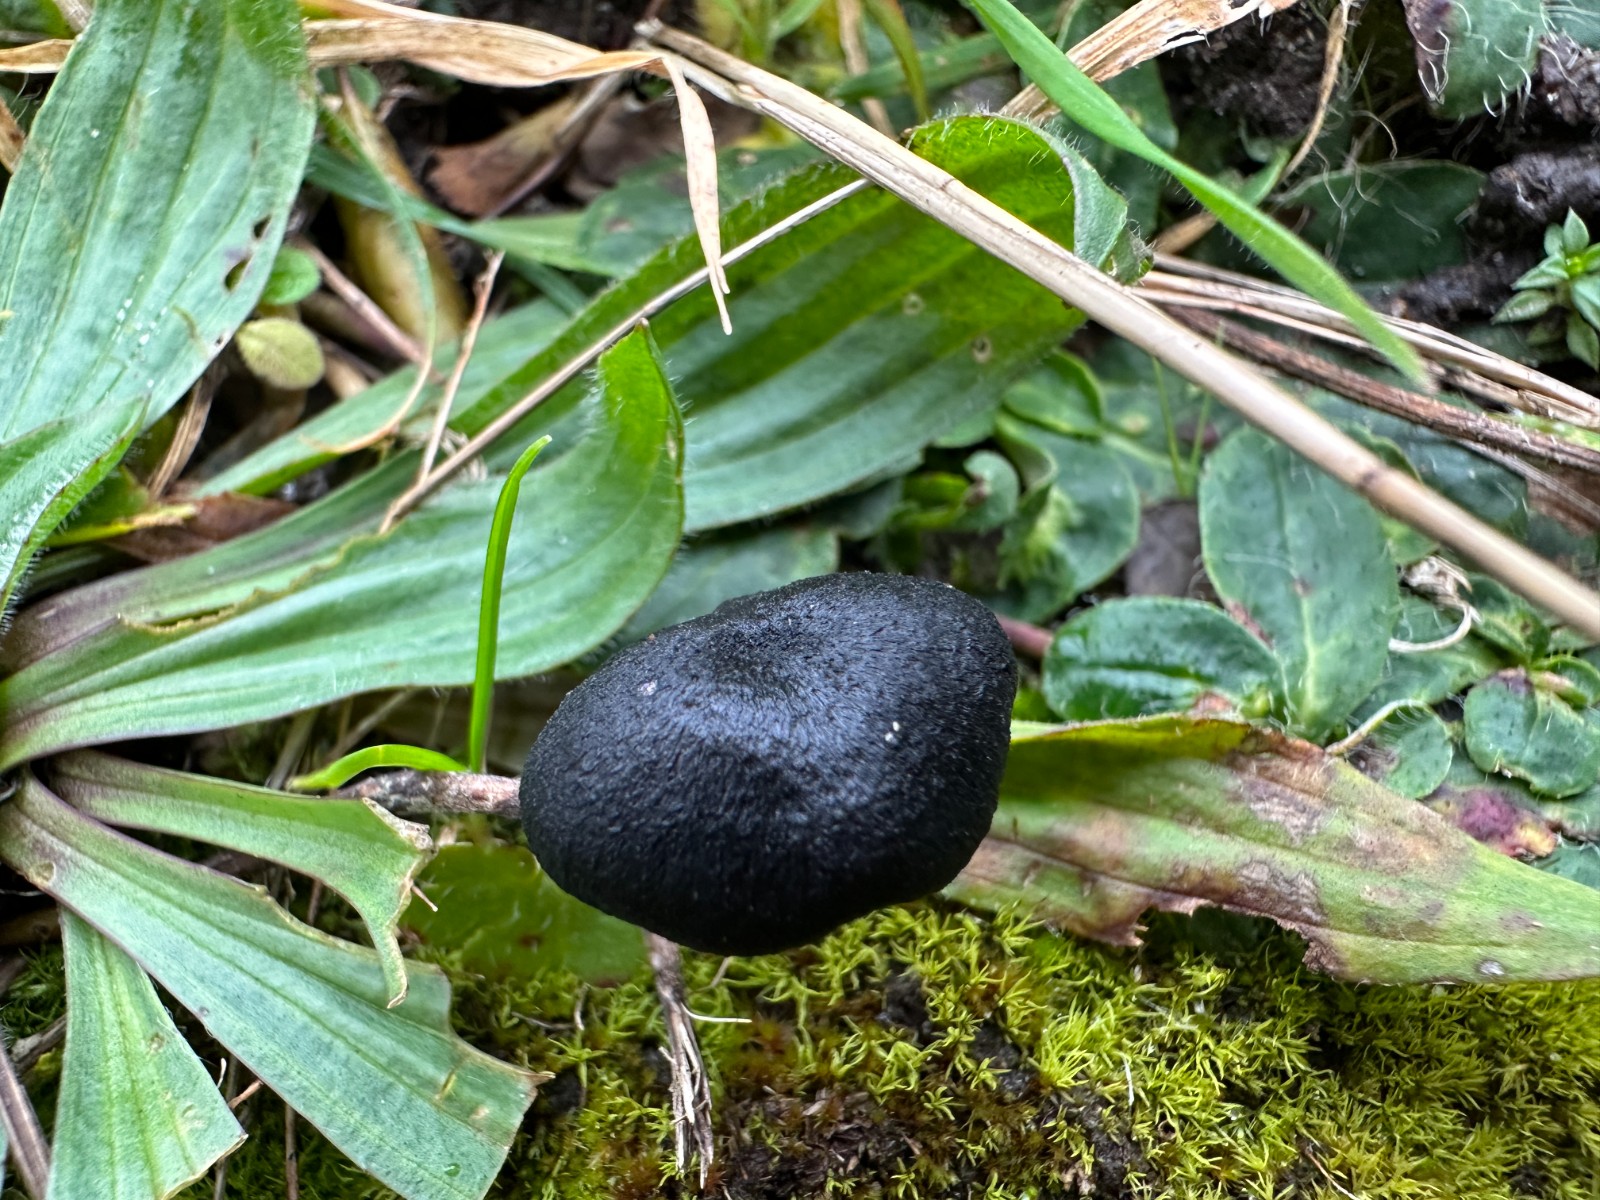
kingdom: Fungi
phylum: Basidiomycota
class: Agaricomycetes
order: Agaricales
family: Entolomataceae
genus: Entoloma
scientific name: Entoloma serrulatum
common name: savbladet rødblad
